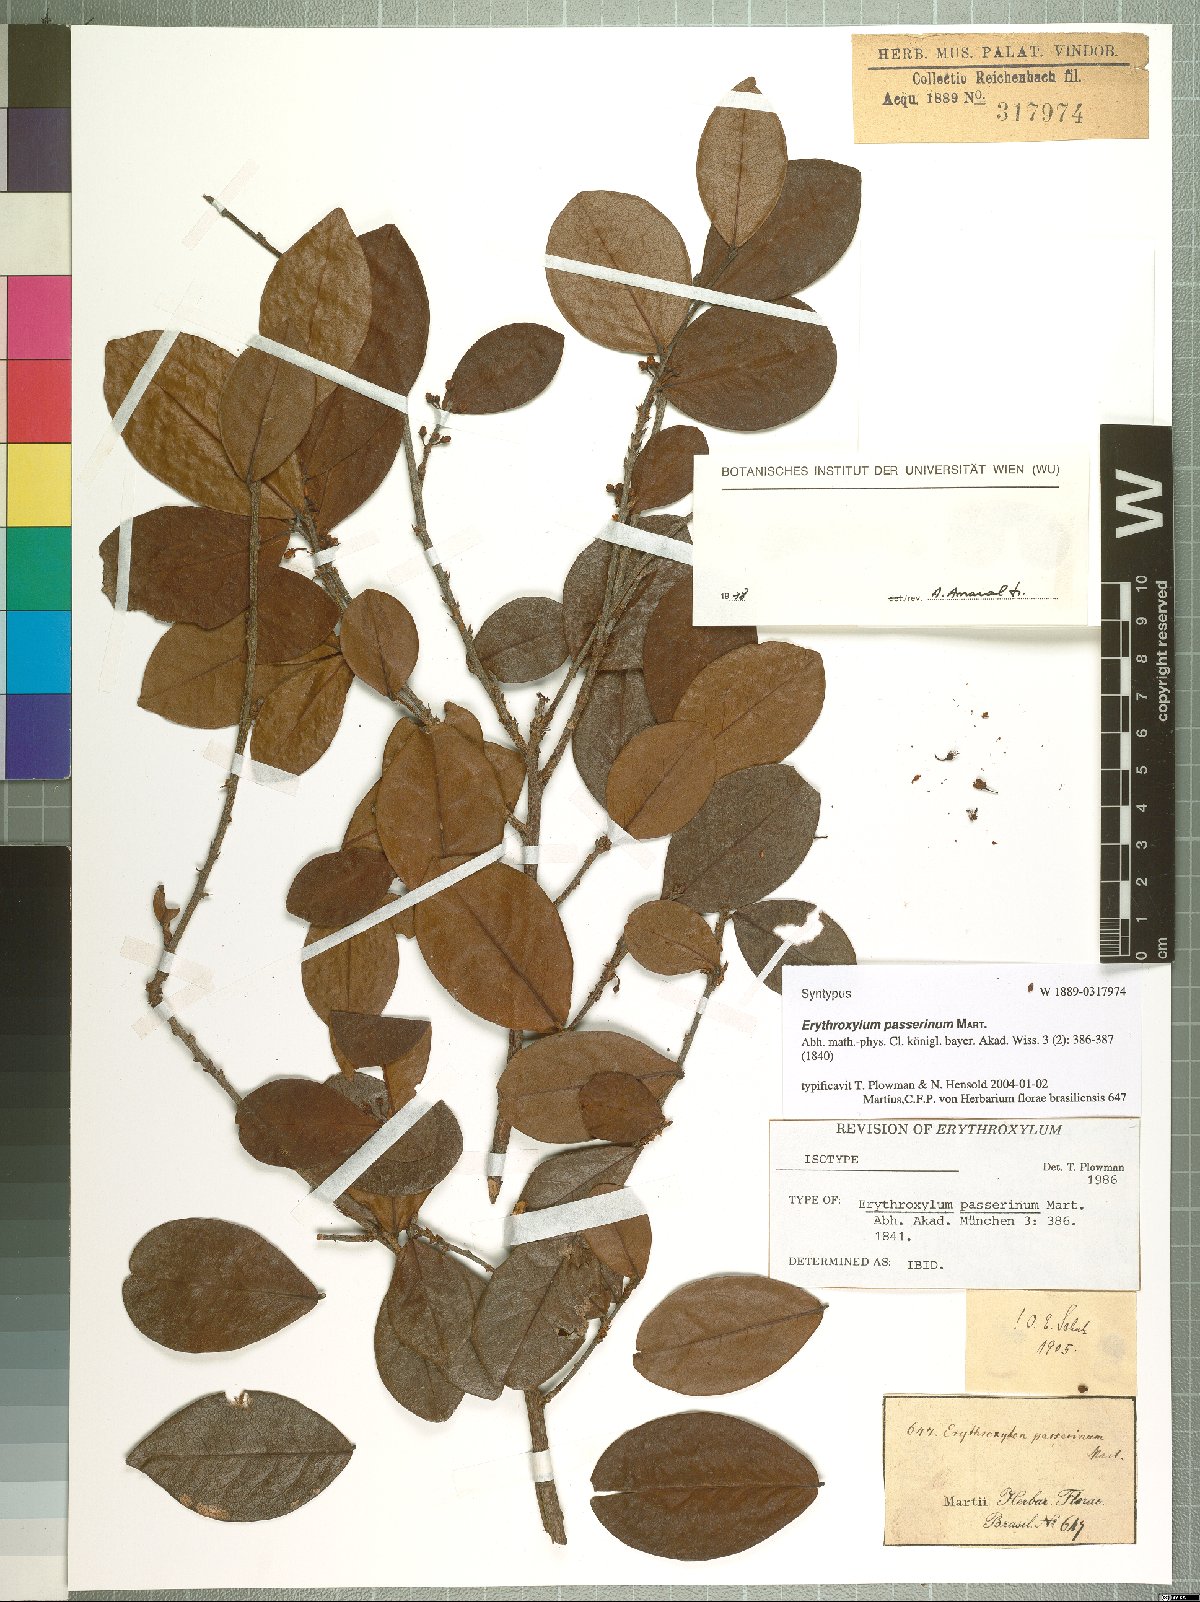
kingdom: Plantae
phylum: Tracheophyta
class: Magnoliopsida
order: Malpighiales
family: Erythroxylaceae
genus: Erythroxylum
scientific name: Erythroxylum passerinum
